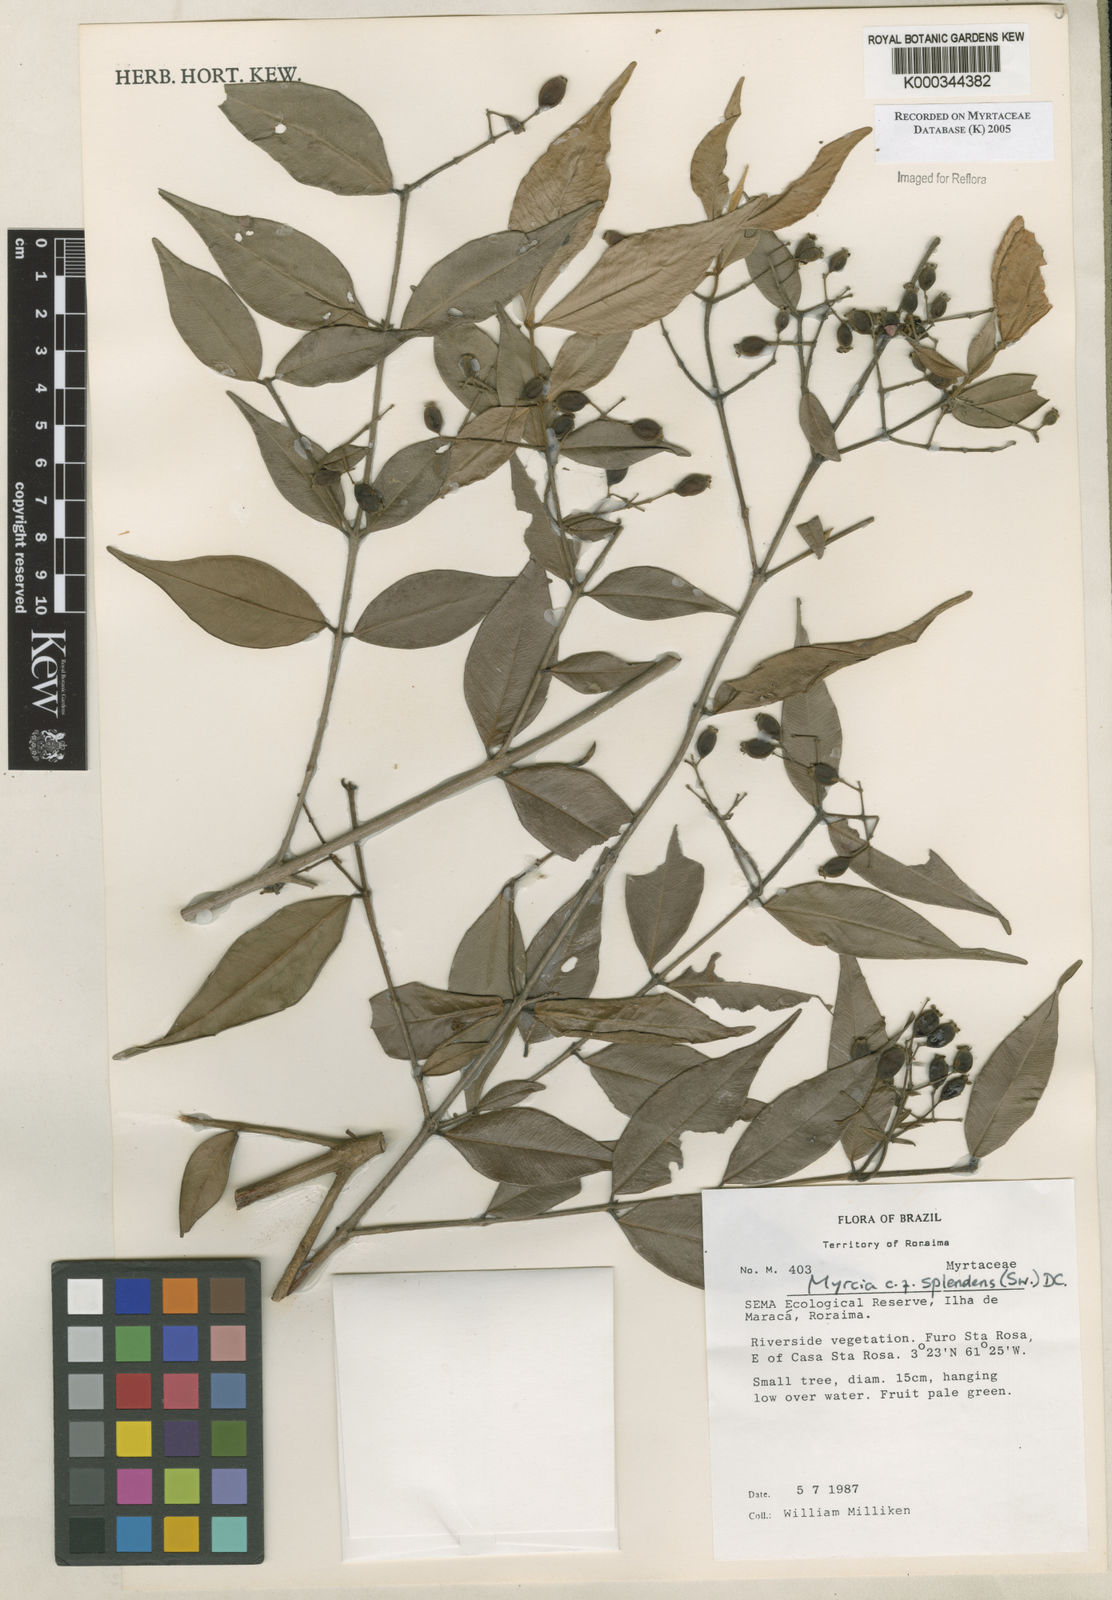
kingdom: Plantae
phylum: Tracheophyta
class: Magnoliopsida
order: Myrtales
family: Myrtaceae
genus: Myrcia
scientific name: Myrcia splendens
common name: Surinam cherry
